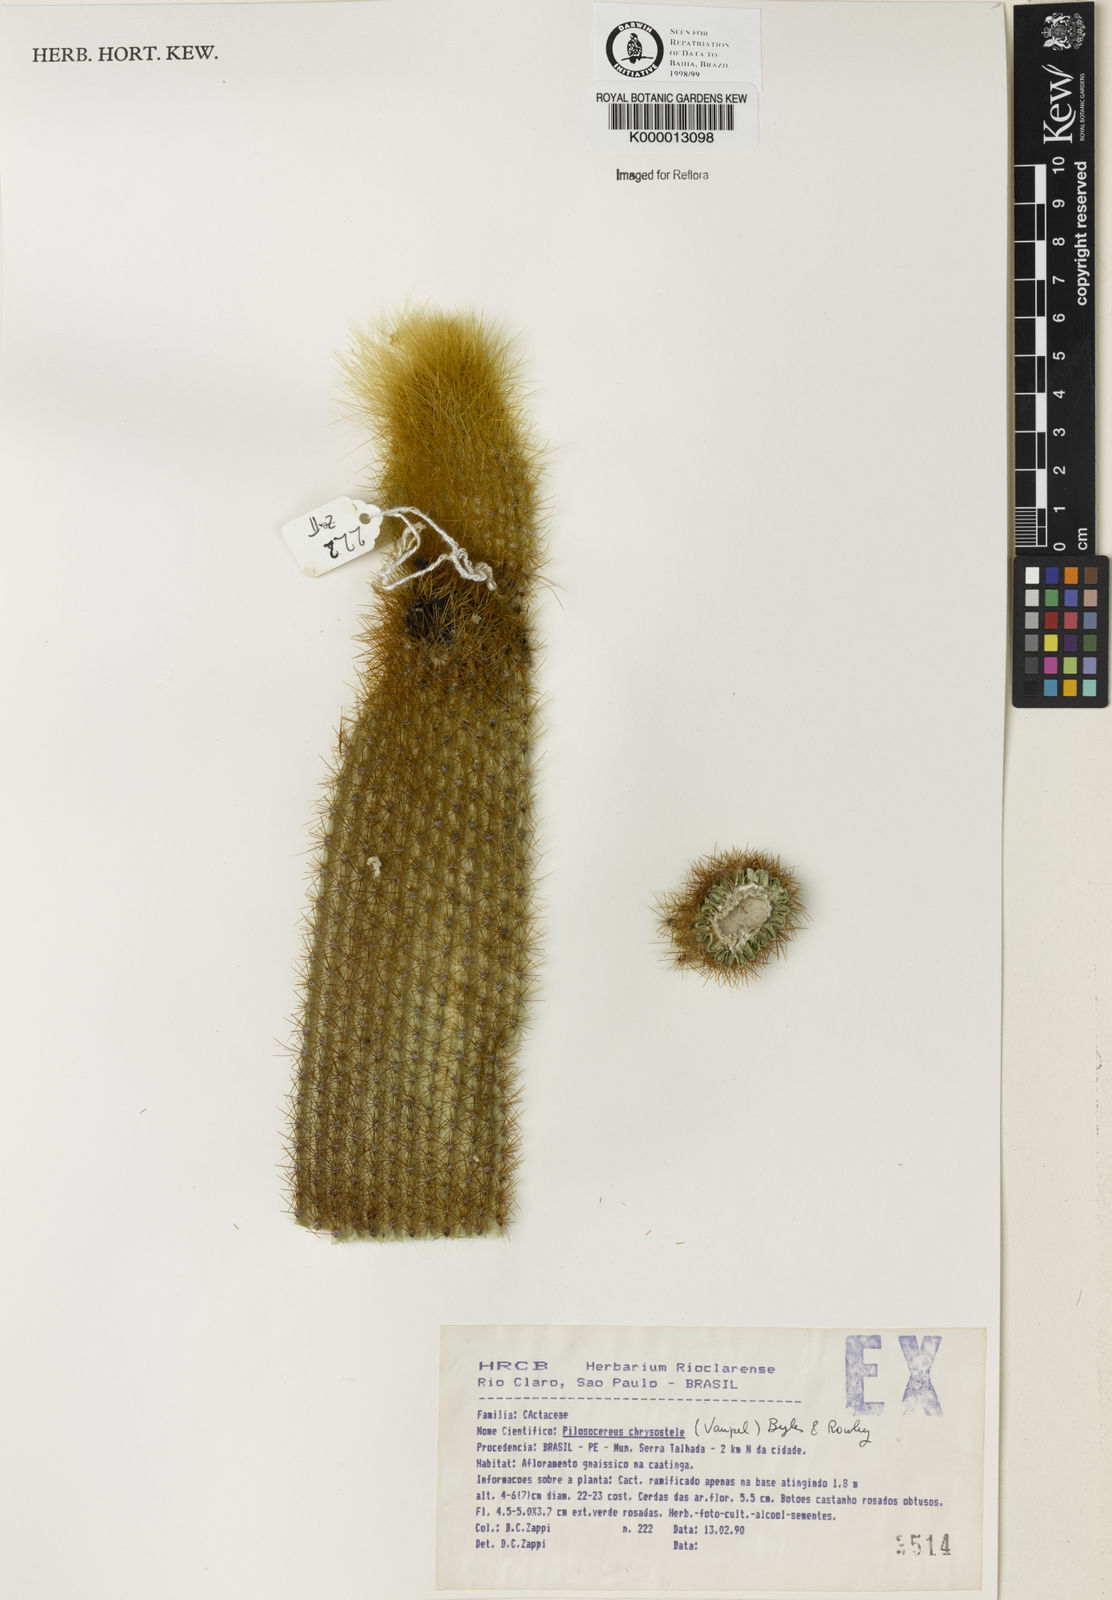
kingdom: Plantae
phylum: Tracheophyta
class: Magnoliopsida
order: Caryophyllales
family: Cactaceae
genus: Pilosocereus
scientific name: Pilosocereus chrysostele
